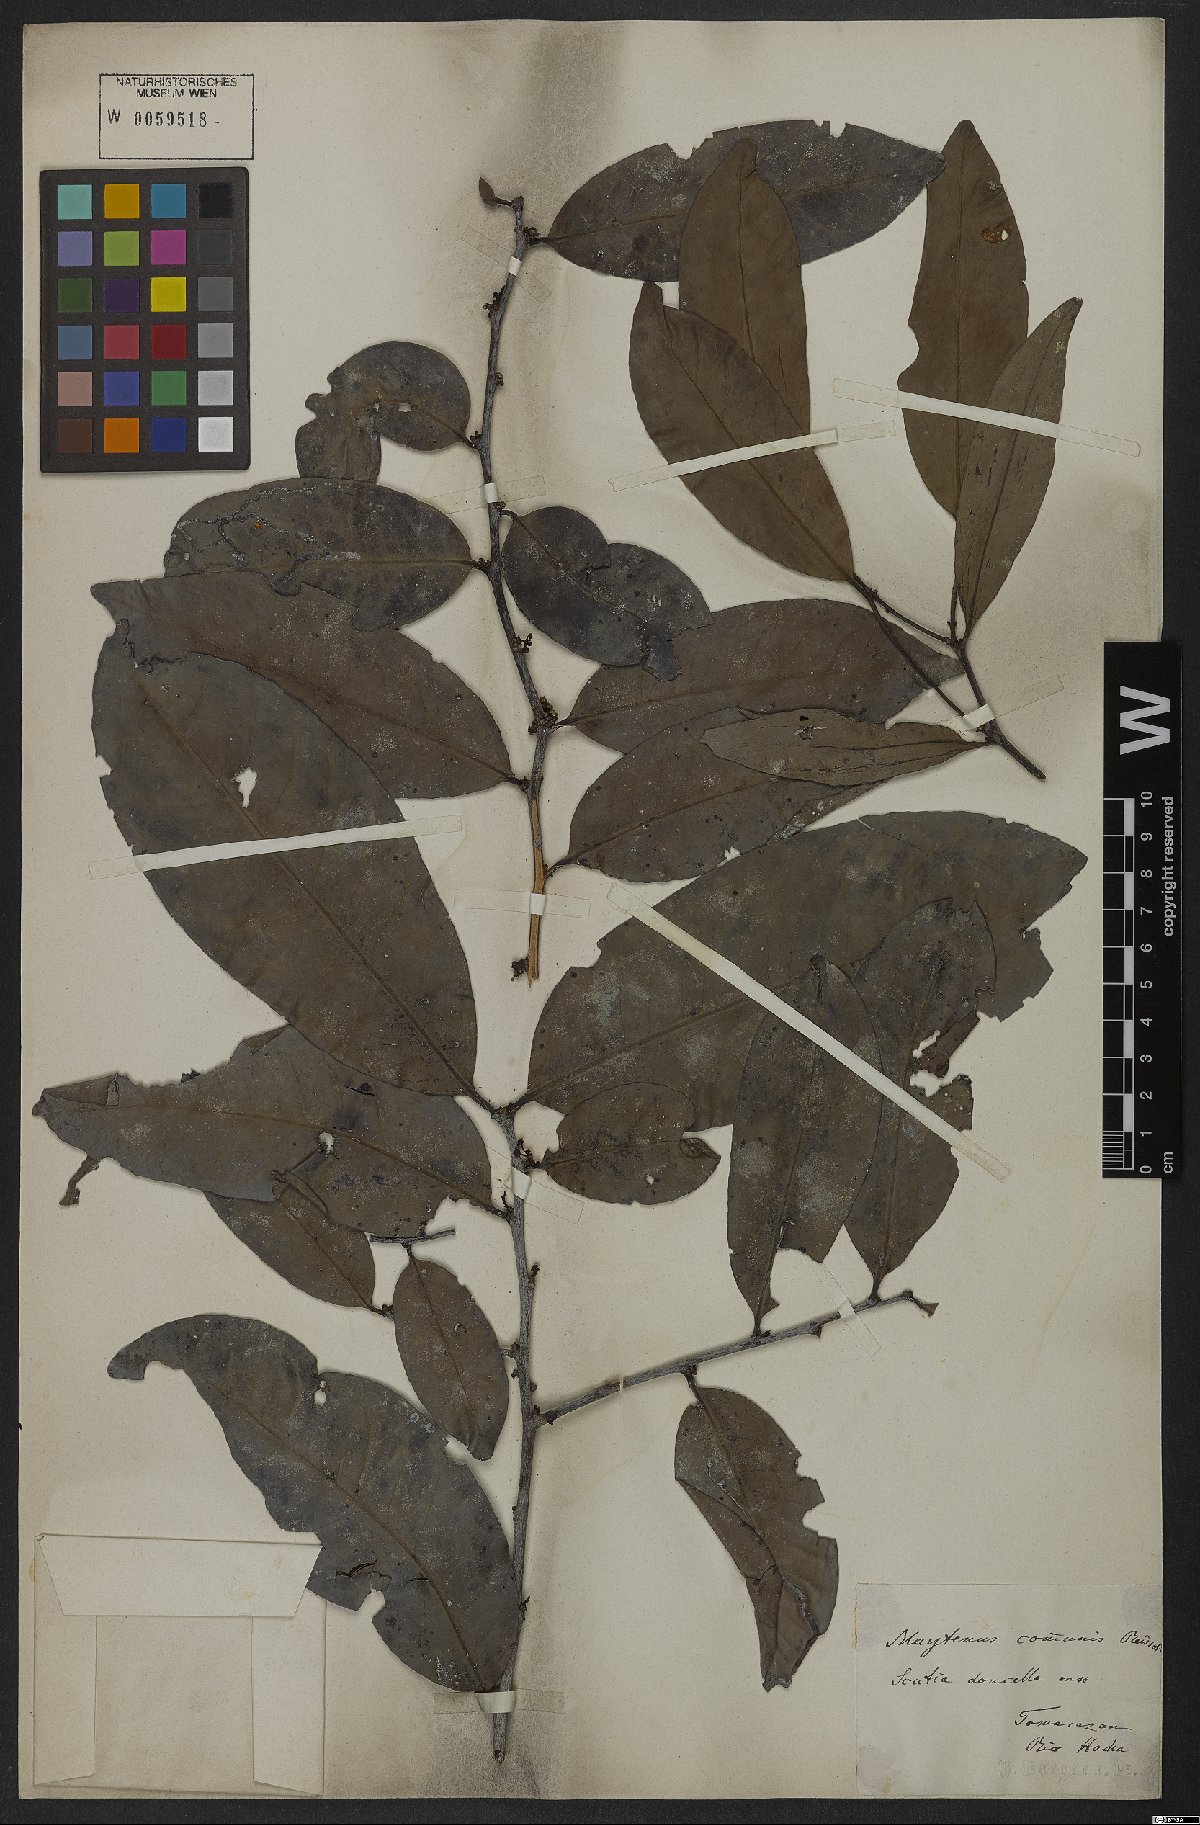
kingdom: Plantae
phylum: Tracheophyta
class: Magnoliopsida
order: Celastrales
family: Celastraceae
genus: Monteverdia
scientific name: Monteverdia communis
